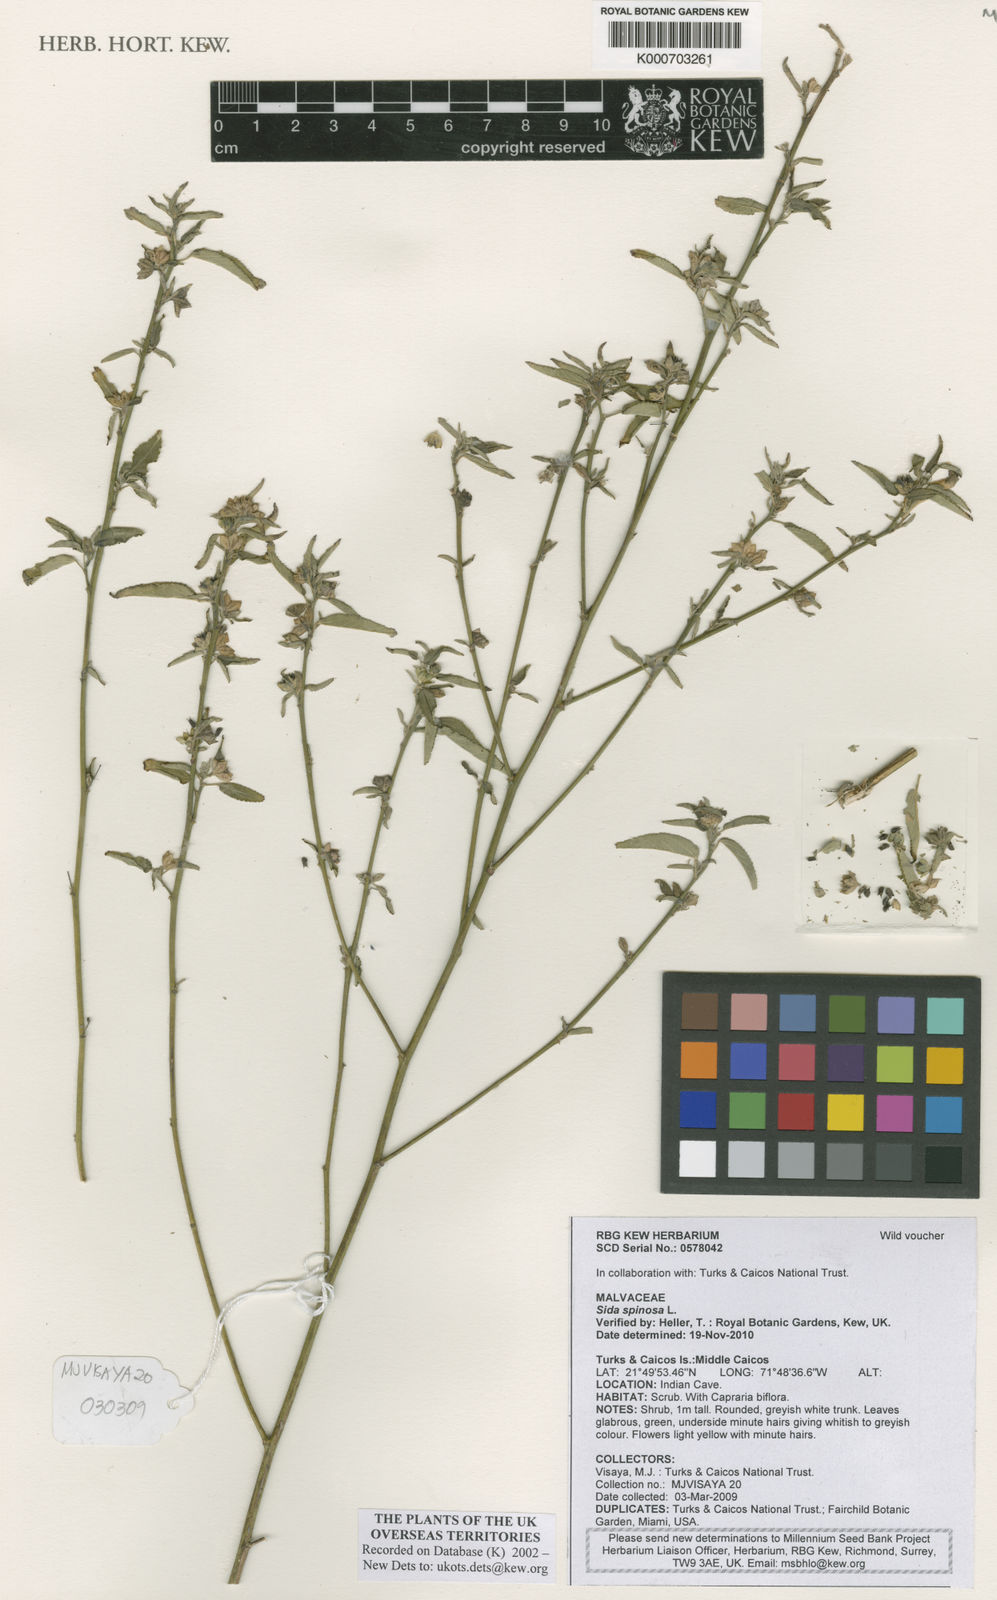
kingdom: Plantae
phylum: Tracheophyta
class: Magnoliopsida
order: Malvales
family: Malvaceae
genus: Sida
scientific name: Sida spinosa
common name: Prickly fanpetals
